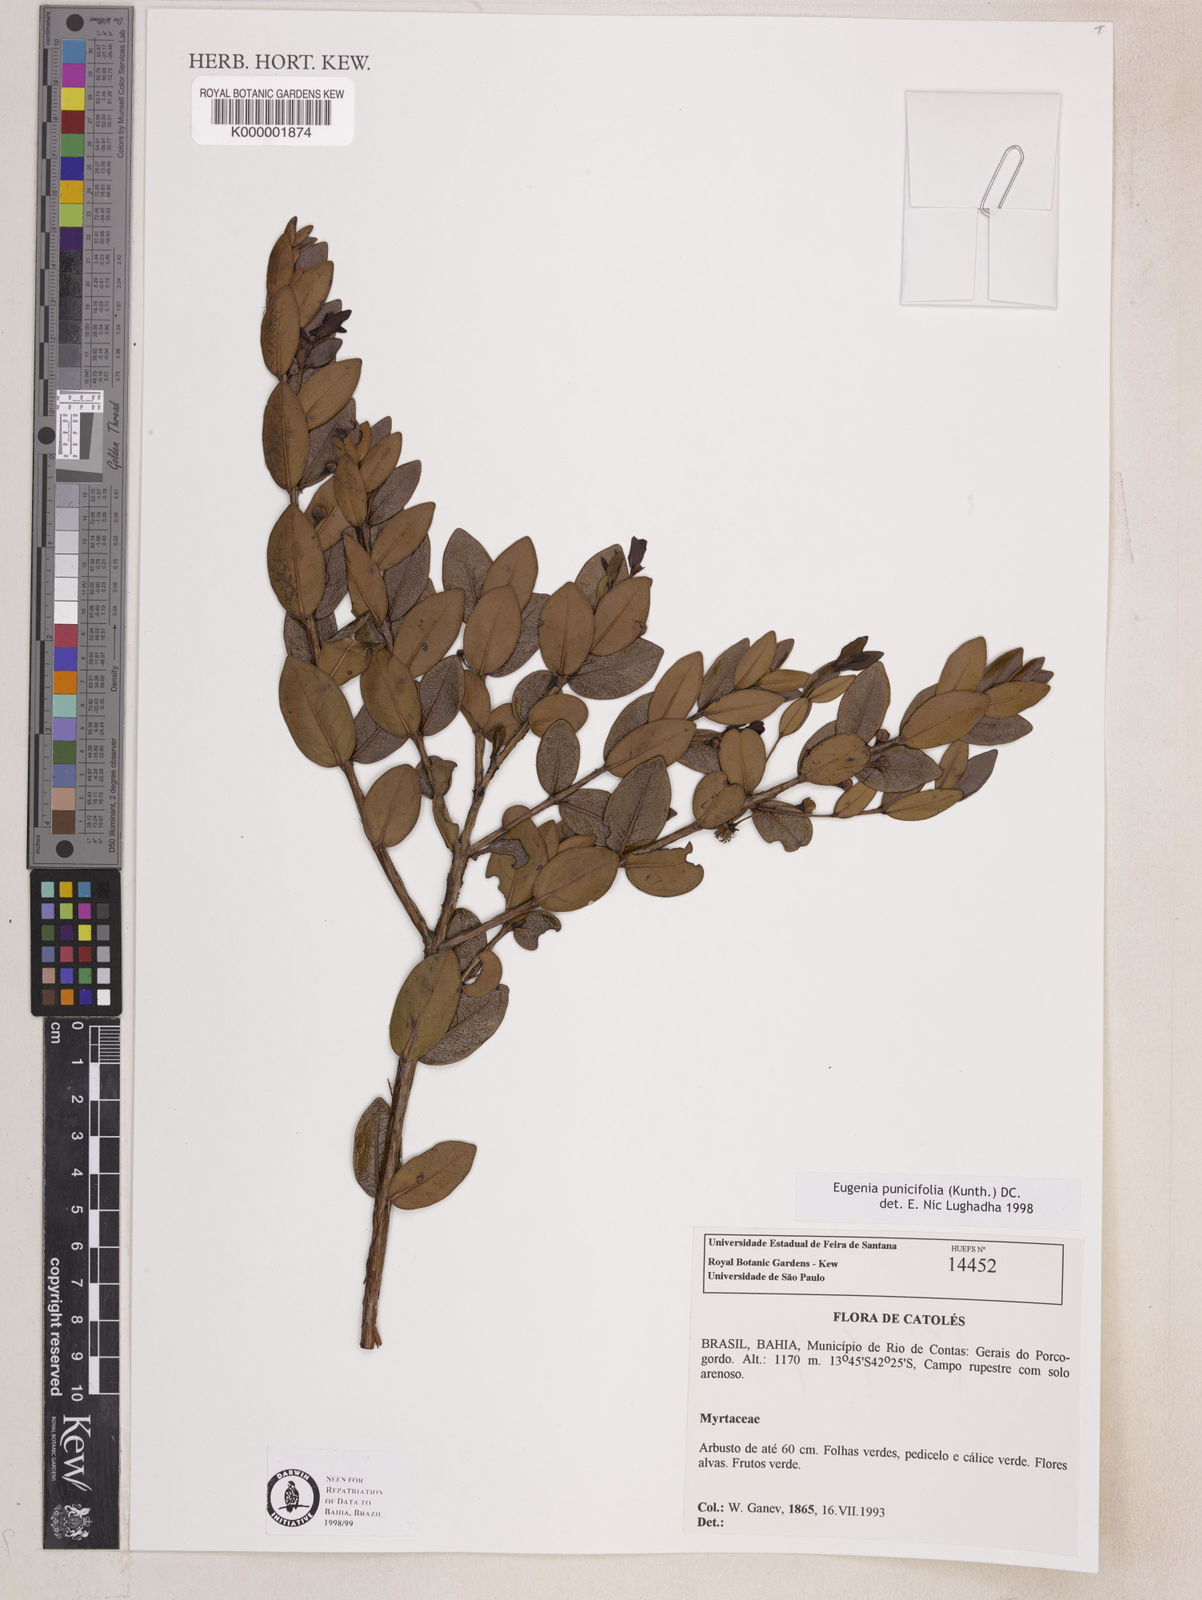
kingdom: Plantae
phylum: Tracheophyta
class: Magnoliopsida
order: Myrtales
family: Myrtaceae
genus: Eugenia
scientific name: Eugenia punicifolia
